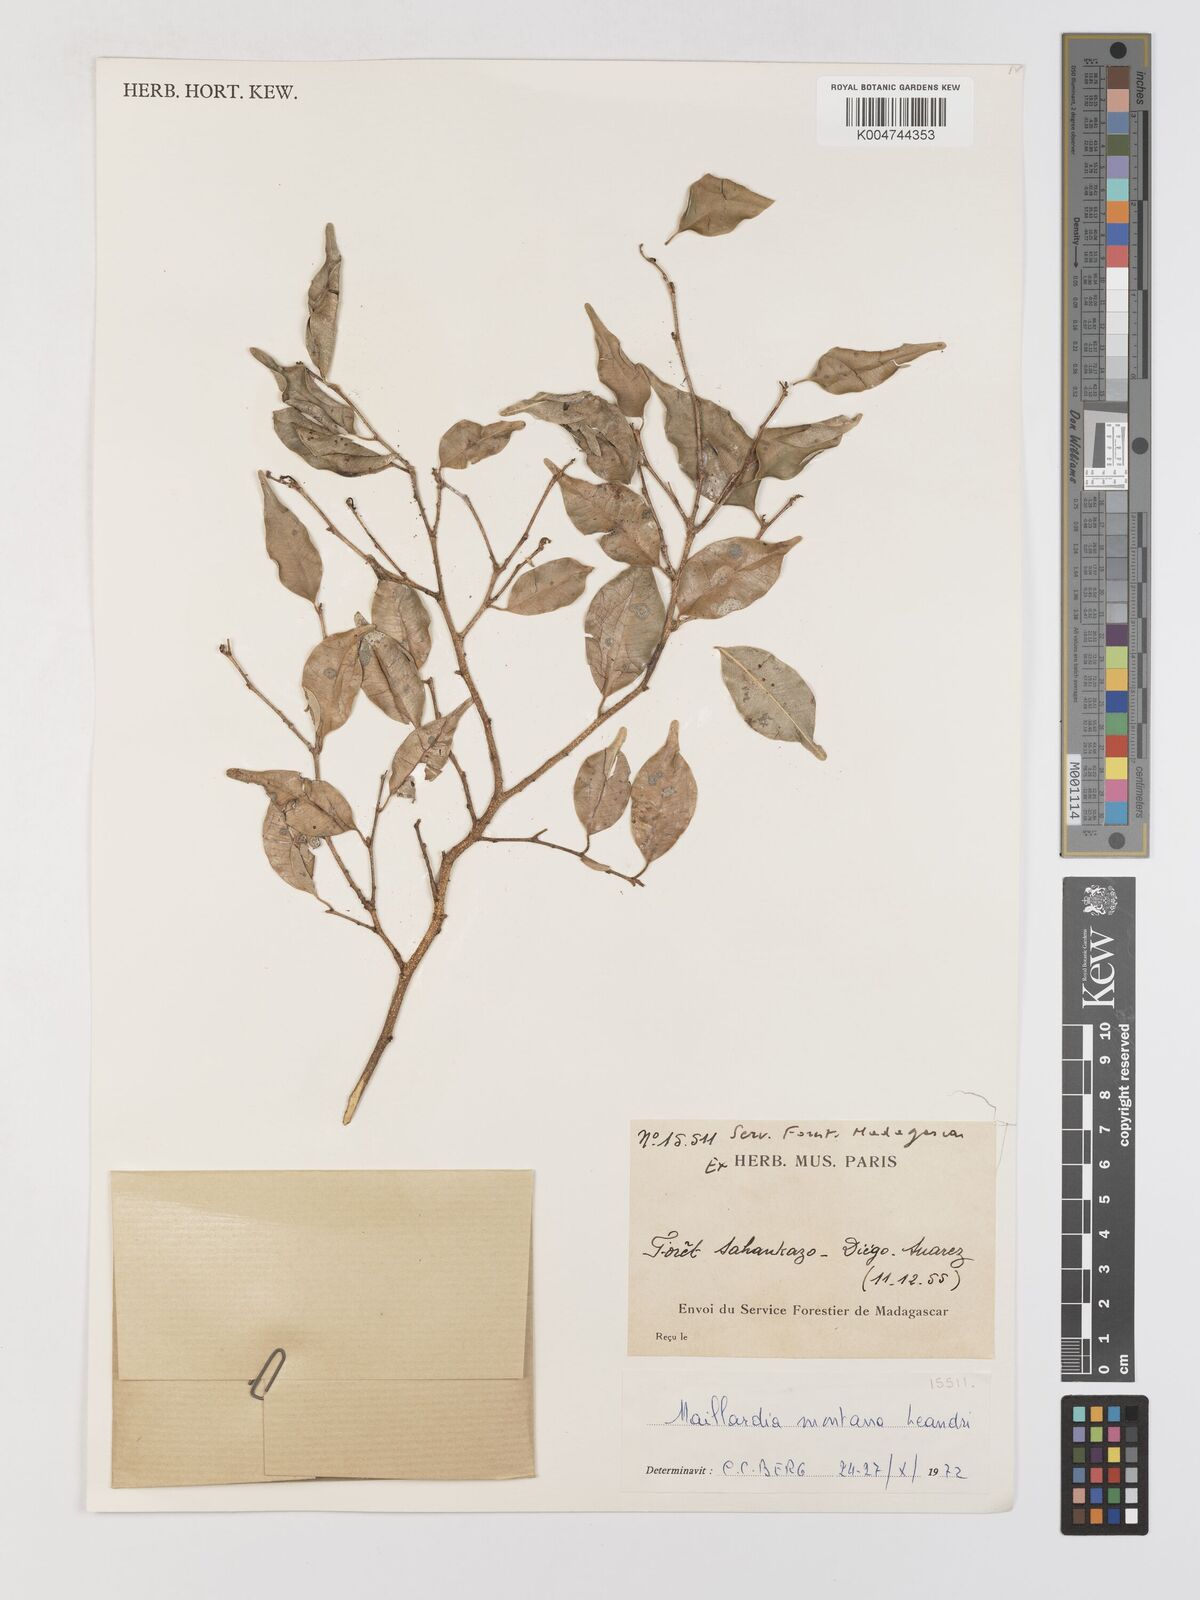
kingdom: Plantae
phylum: Tracheophyta
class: Magnoliopsida
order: Rosales
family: Moraceae
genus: Maillardia
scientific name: Maillardia montana
